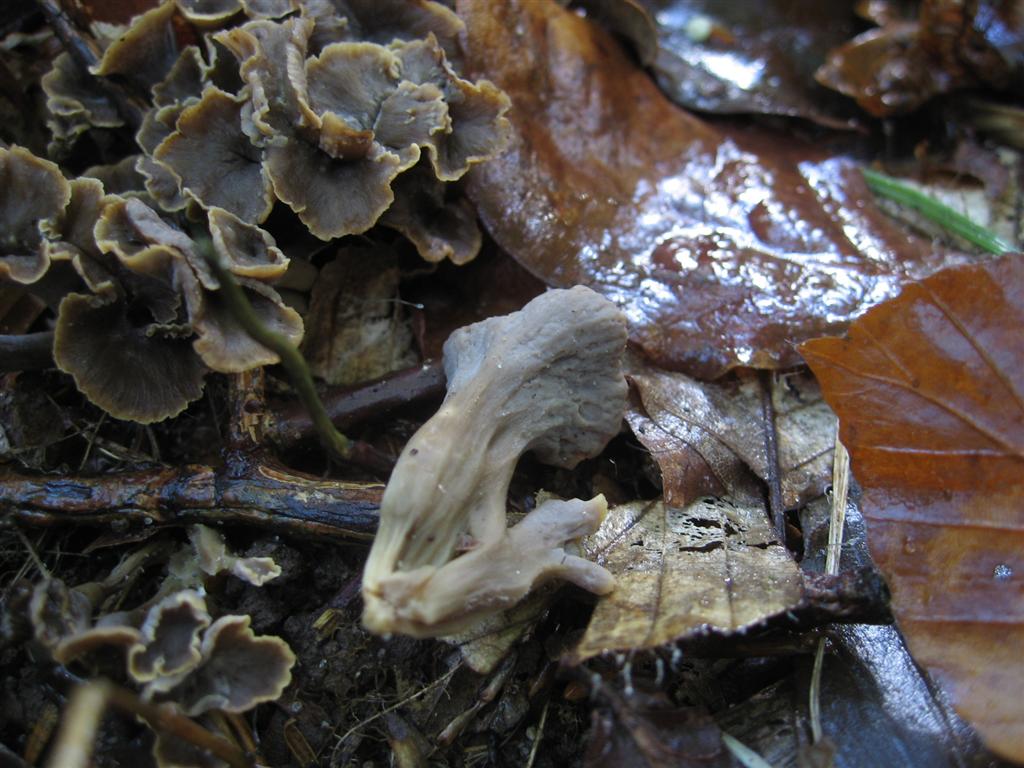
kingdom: Fungi
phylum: Basidiomycota
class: Agaricomycetes
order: Cantharellales
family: Hydnaceae
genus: Craterellus
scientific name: Craterellus undulatus
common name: liden kantarel
